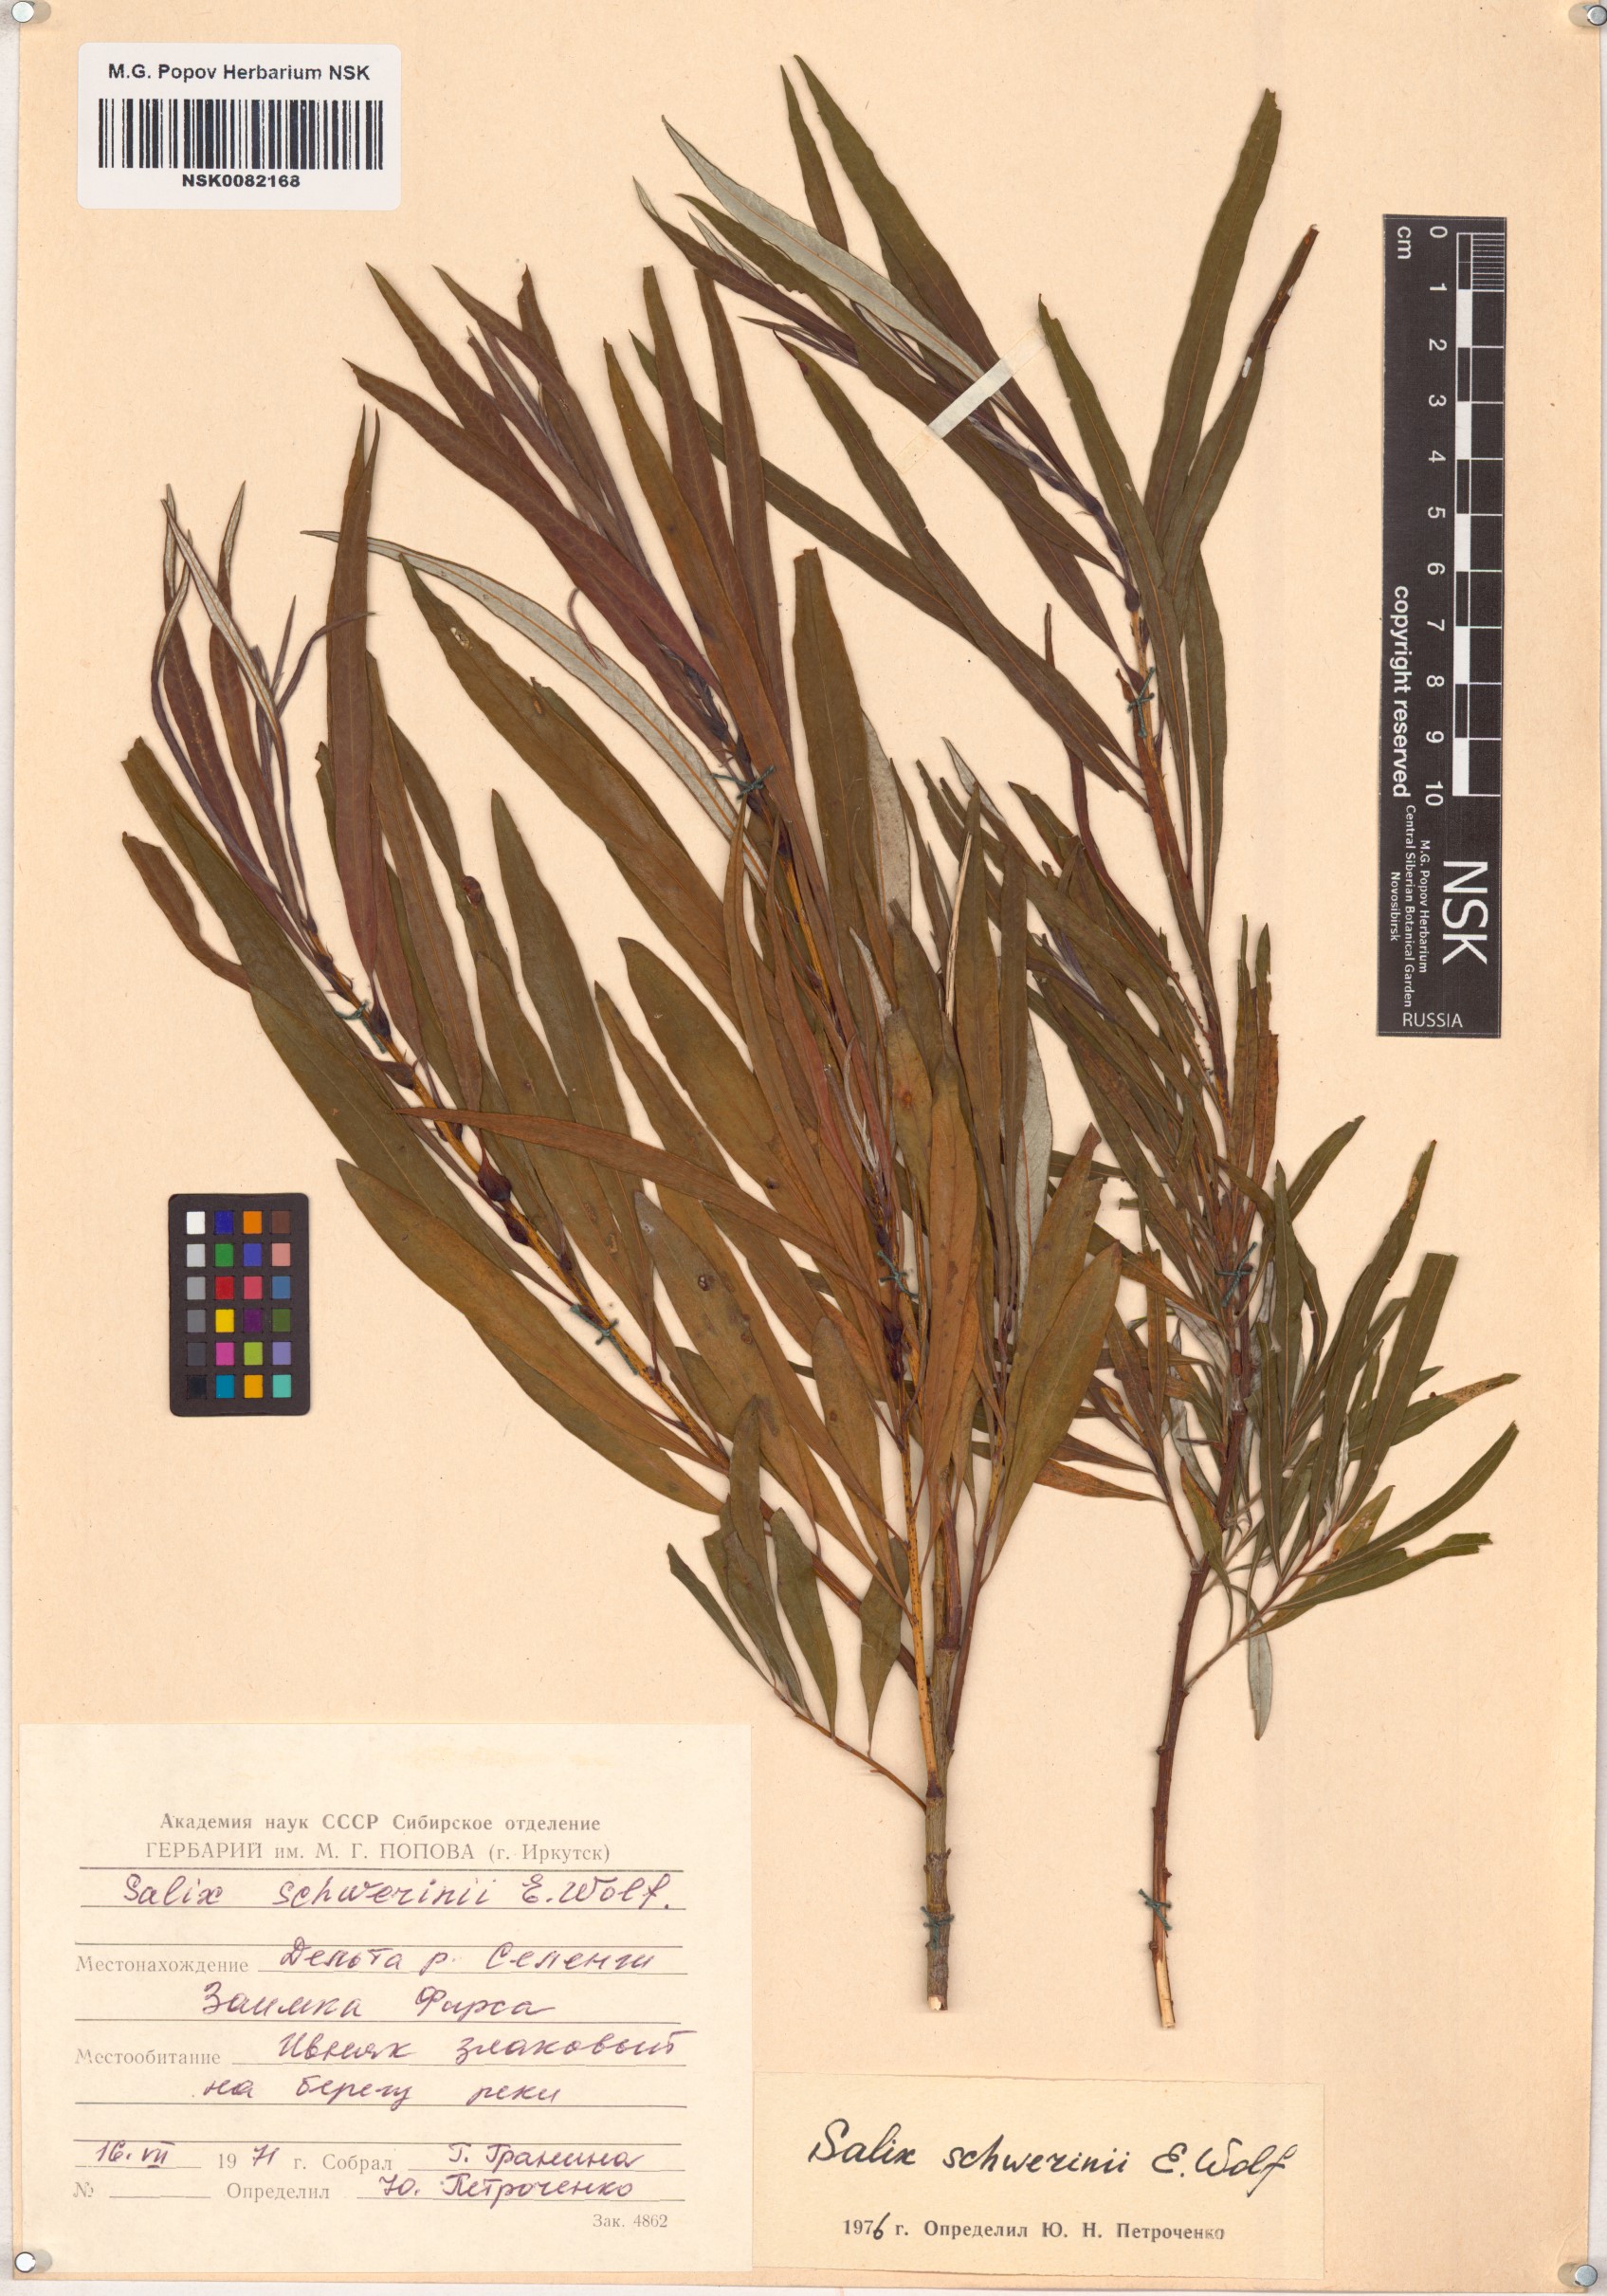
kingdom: Plantae
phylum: Tracheophyta
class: Magnoliopsida
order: Malpighiales
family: Salicaceae
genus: Salix
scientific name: Salix schwerinii
